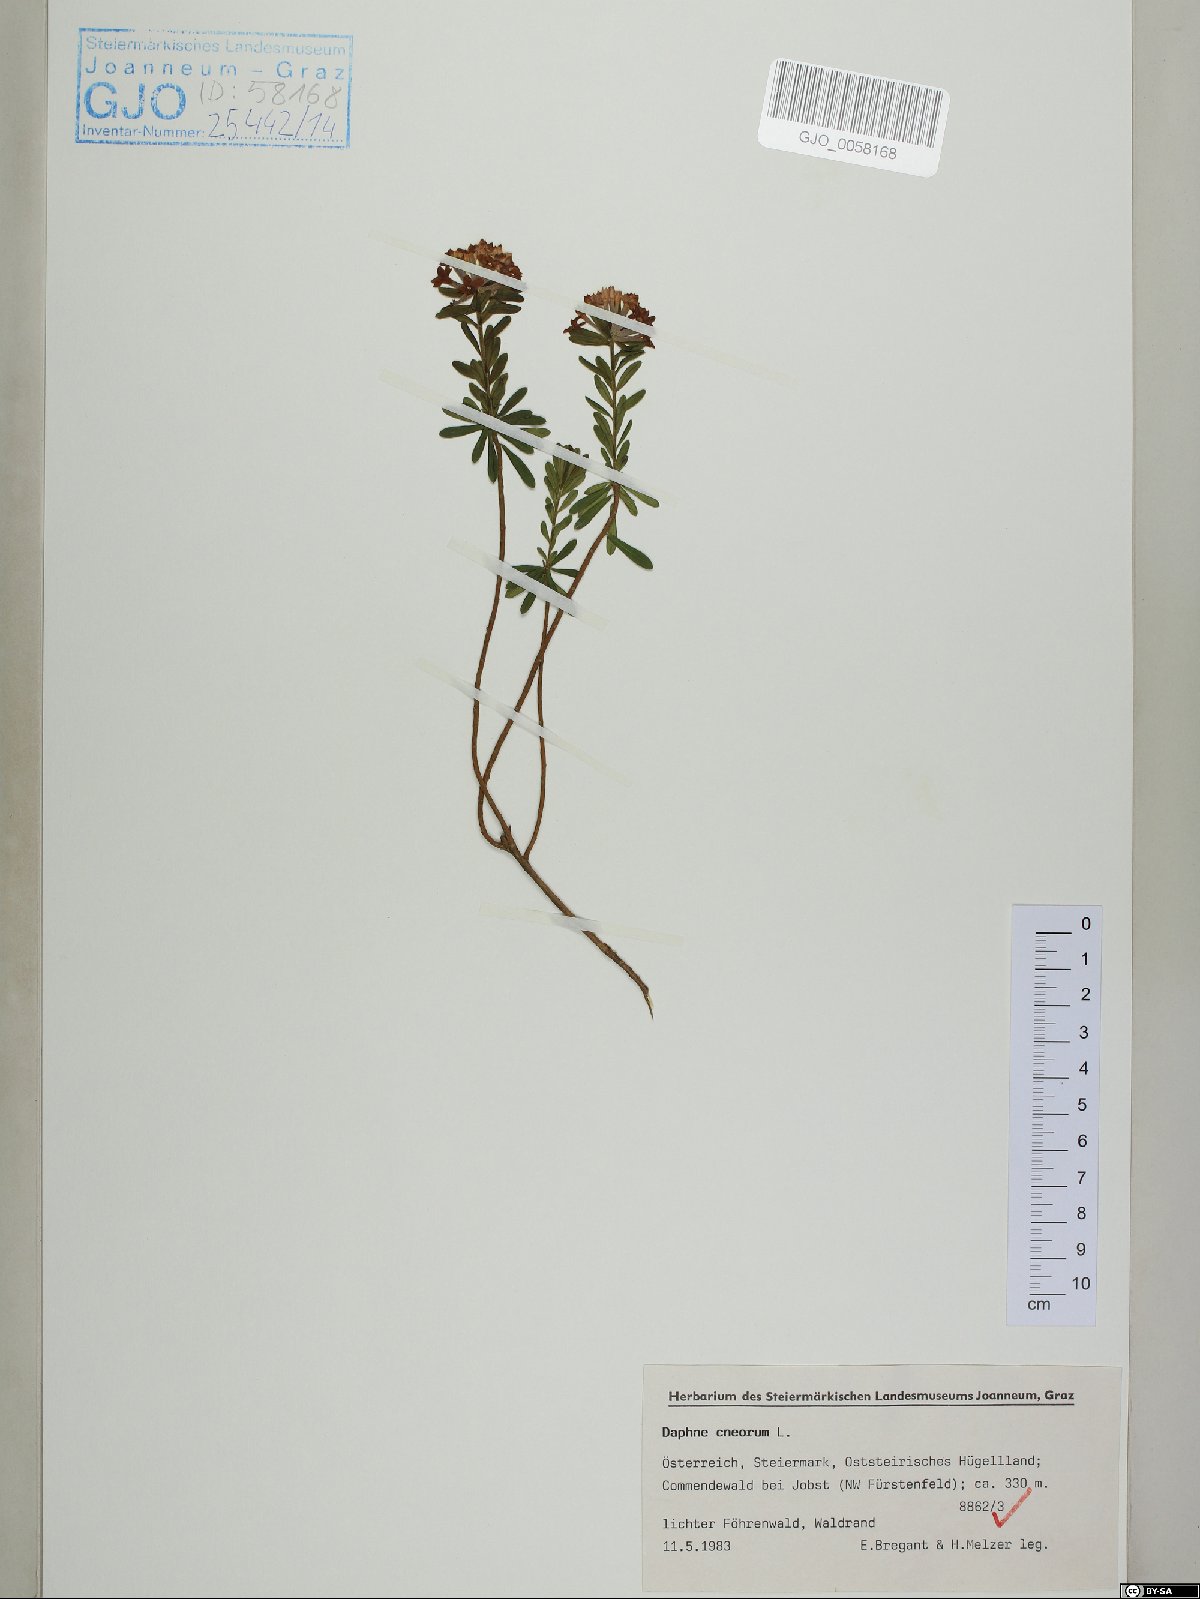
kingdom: Plantae
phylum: Tracheophyta
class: Magnoliopsida
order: Malvales
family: Thymelaeaceae
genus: Daphne
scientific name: Daphne cneorum
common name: Garland-flower
